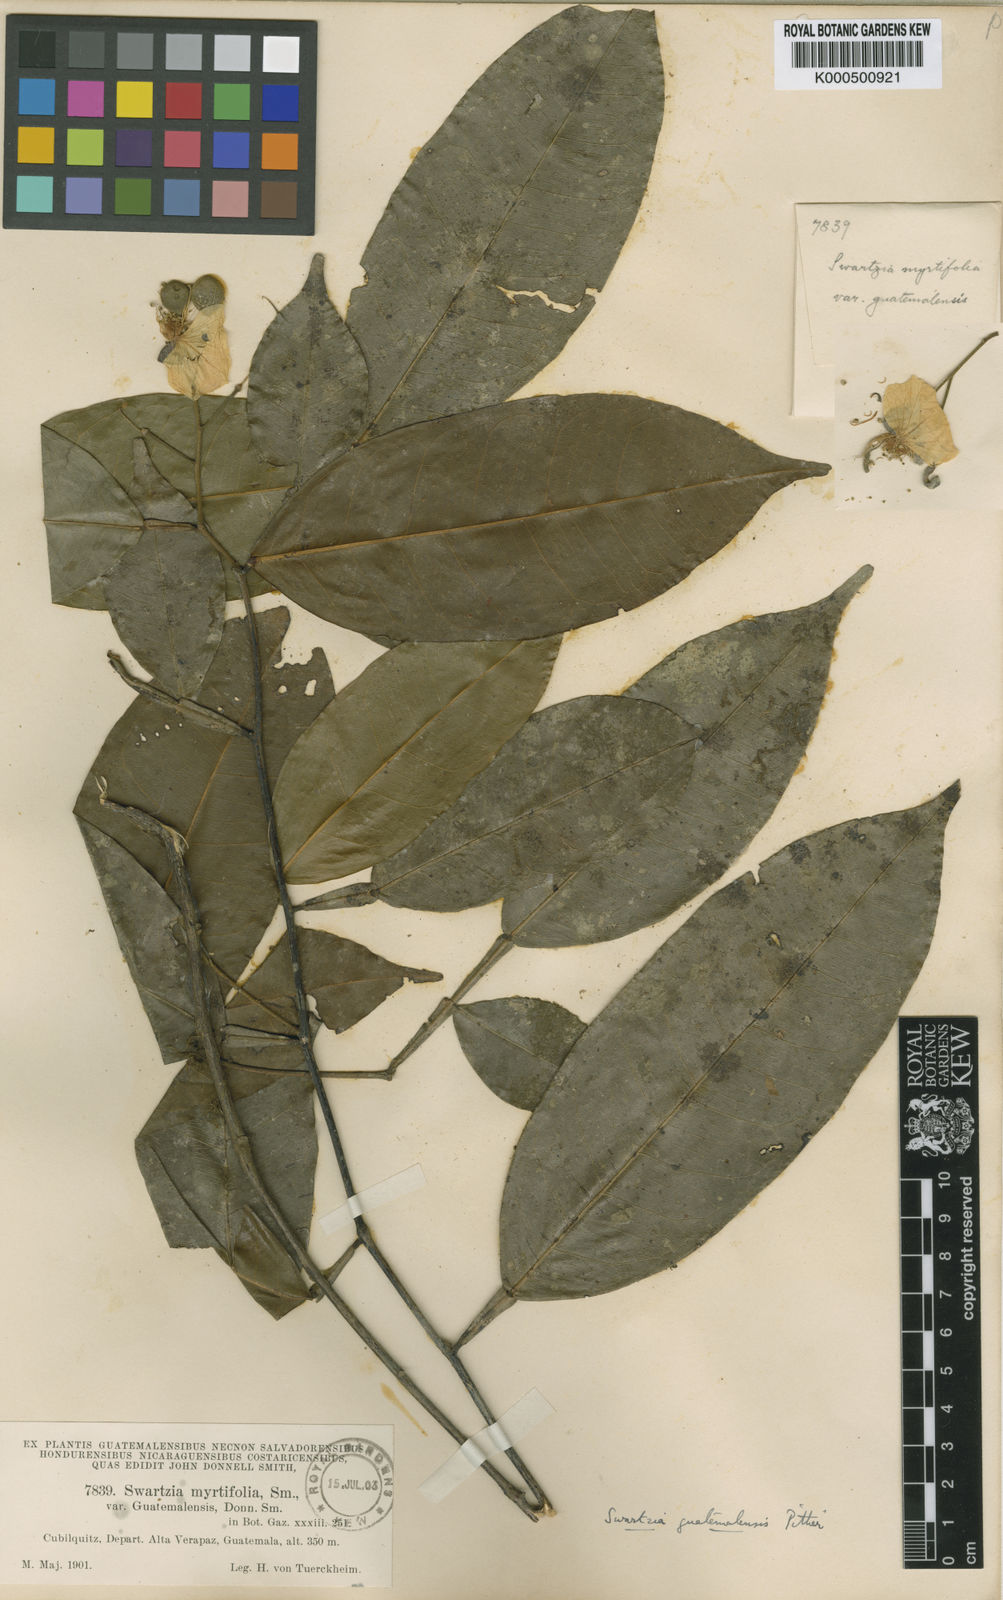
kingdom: Plantae
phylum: Tracheophyta
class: Magnoliopsida
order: Fabales
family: Fabaceae
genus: Swartzia
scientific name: Swartzia guatemalensis
